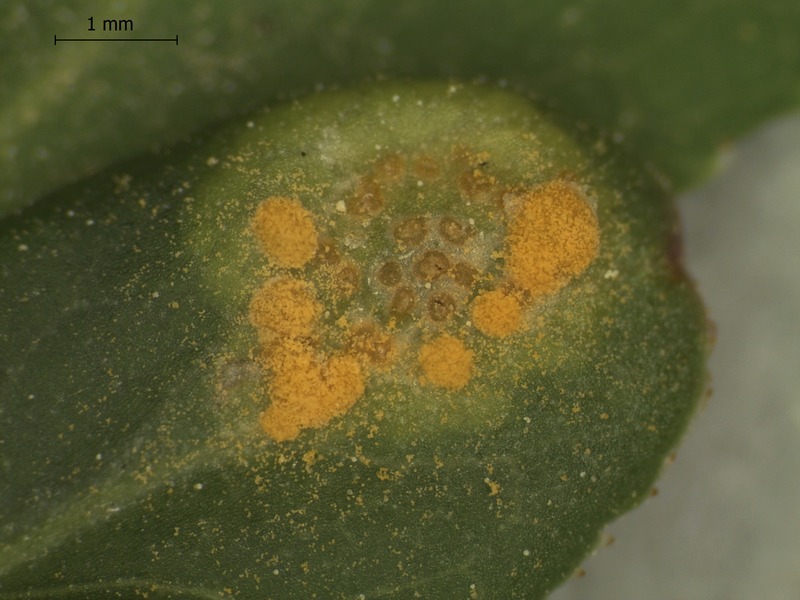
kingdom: Fungi
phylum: Basidiomycota
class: Pucciniomycetes
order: Pucciniales
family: Melampsoraceae
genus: Melampsora
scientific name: Melampsora epitea
